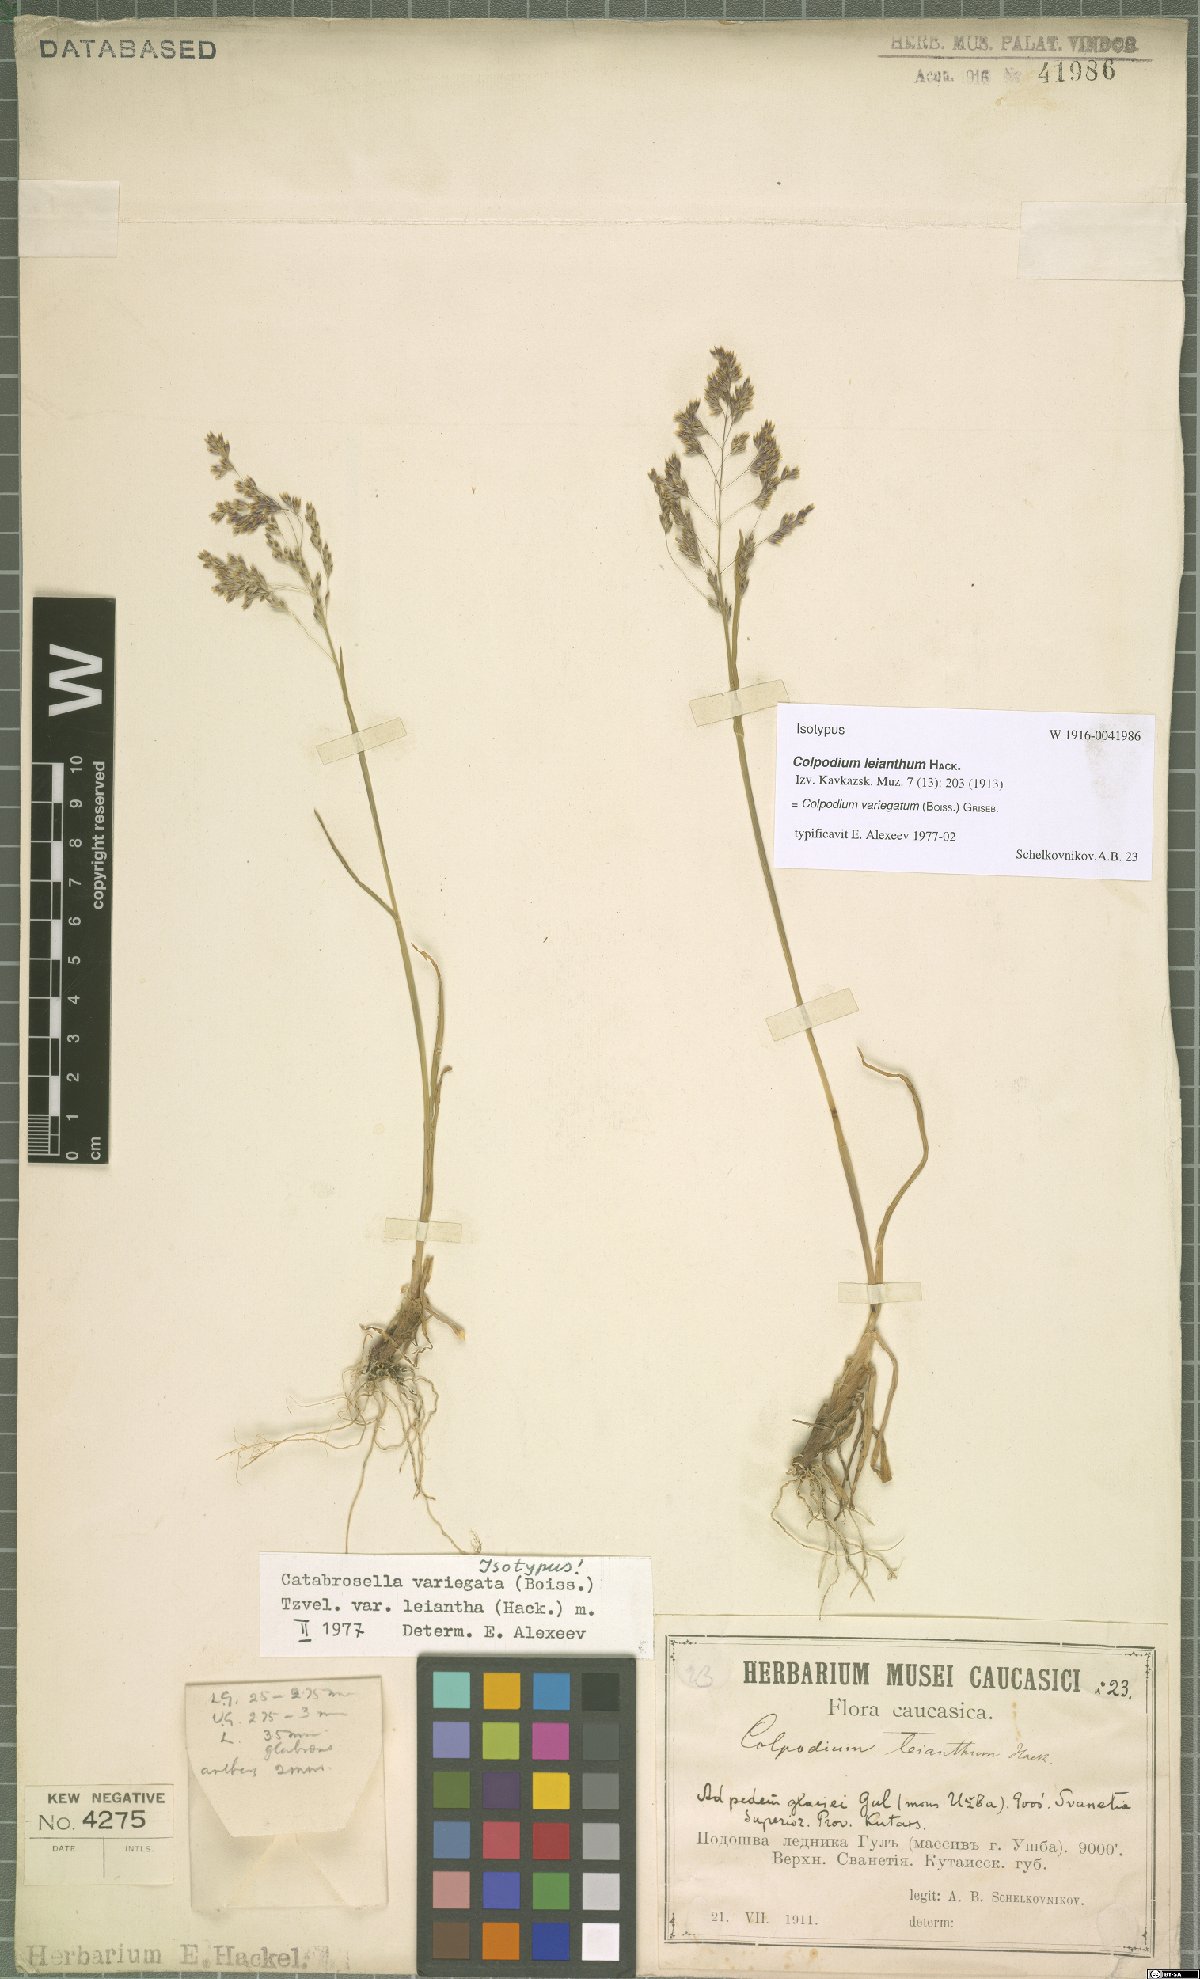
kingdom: Plantae
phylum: Tracheophyta
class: Liliopsida
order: Poales
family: Poaceae
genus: Catabrosella
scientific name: Catabrosella variegata
